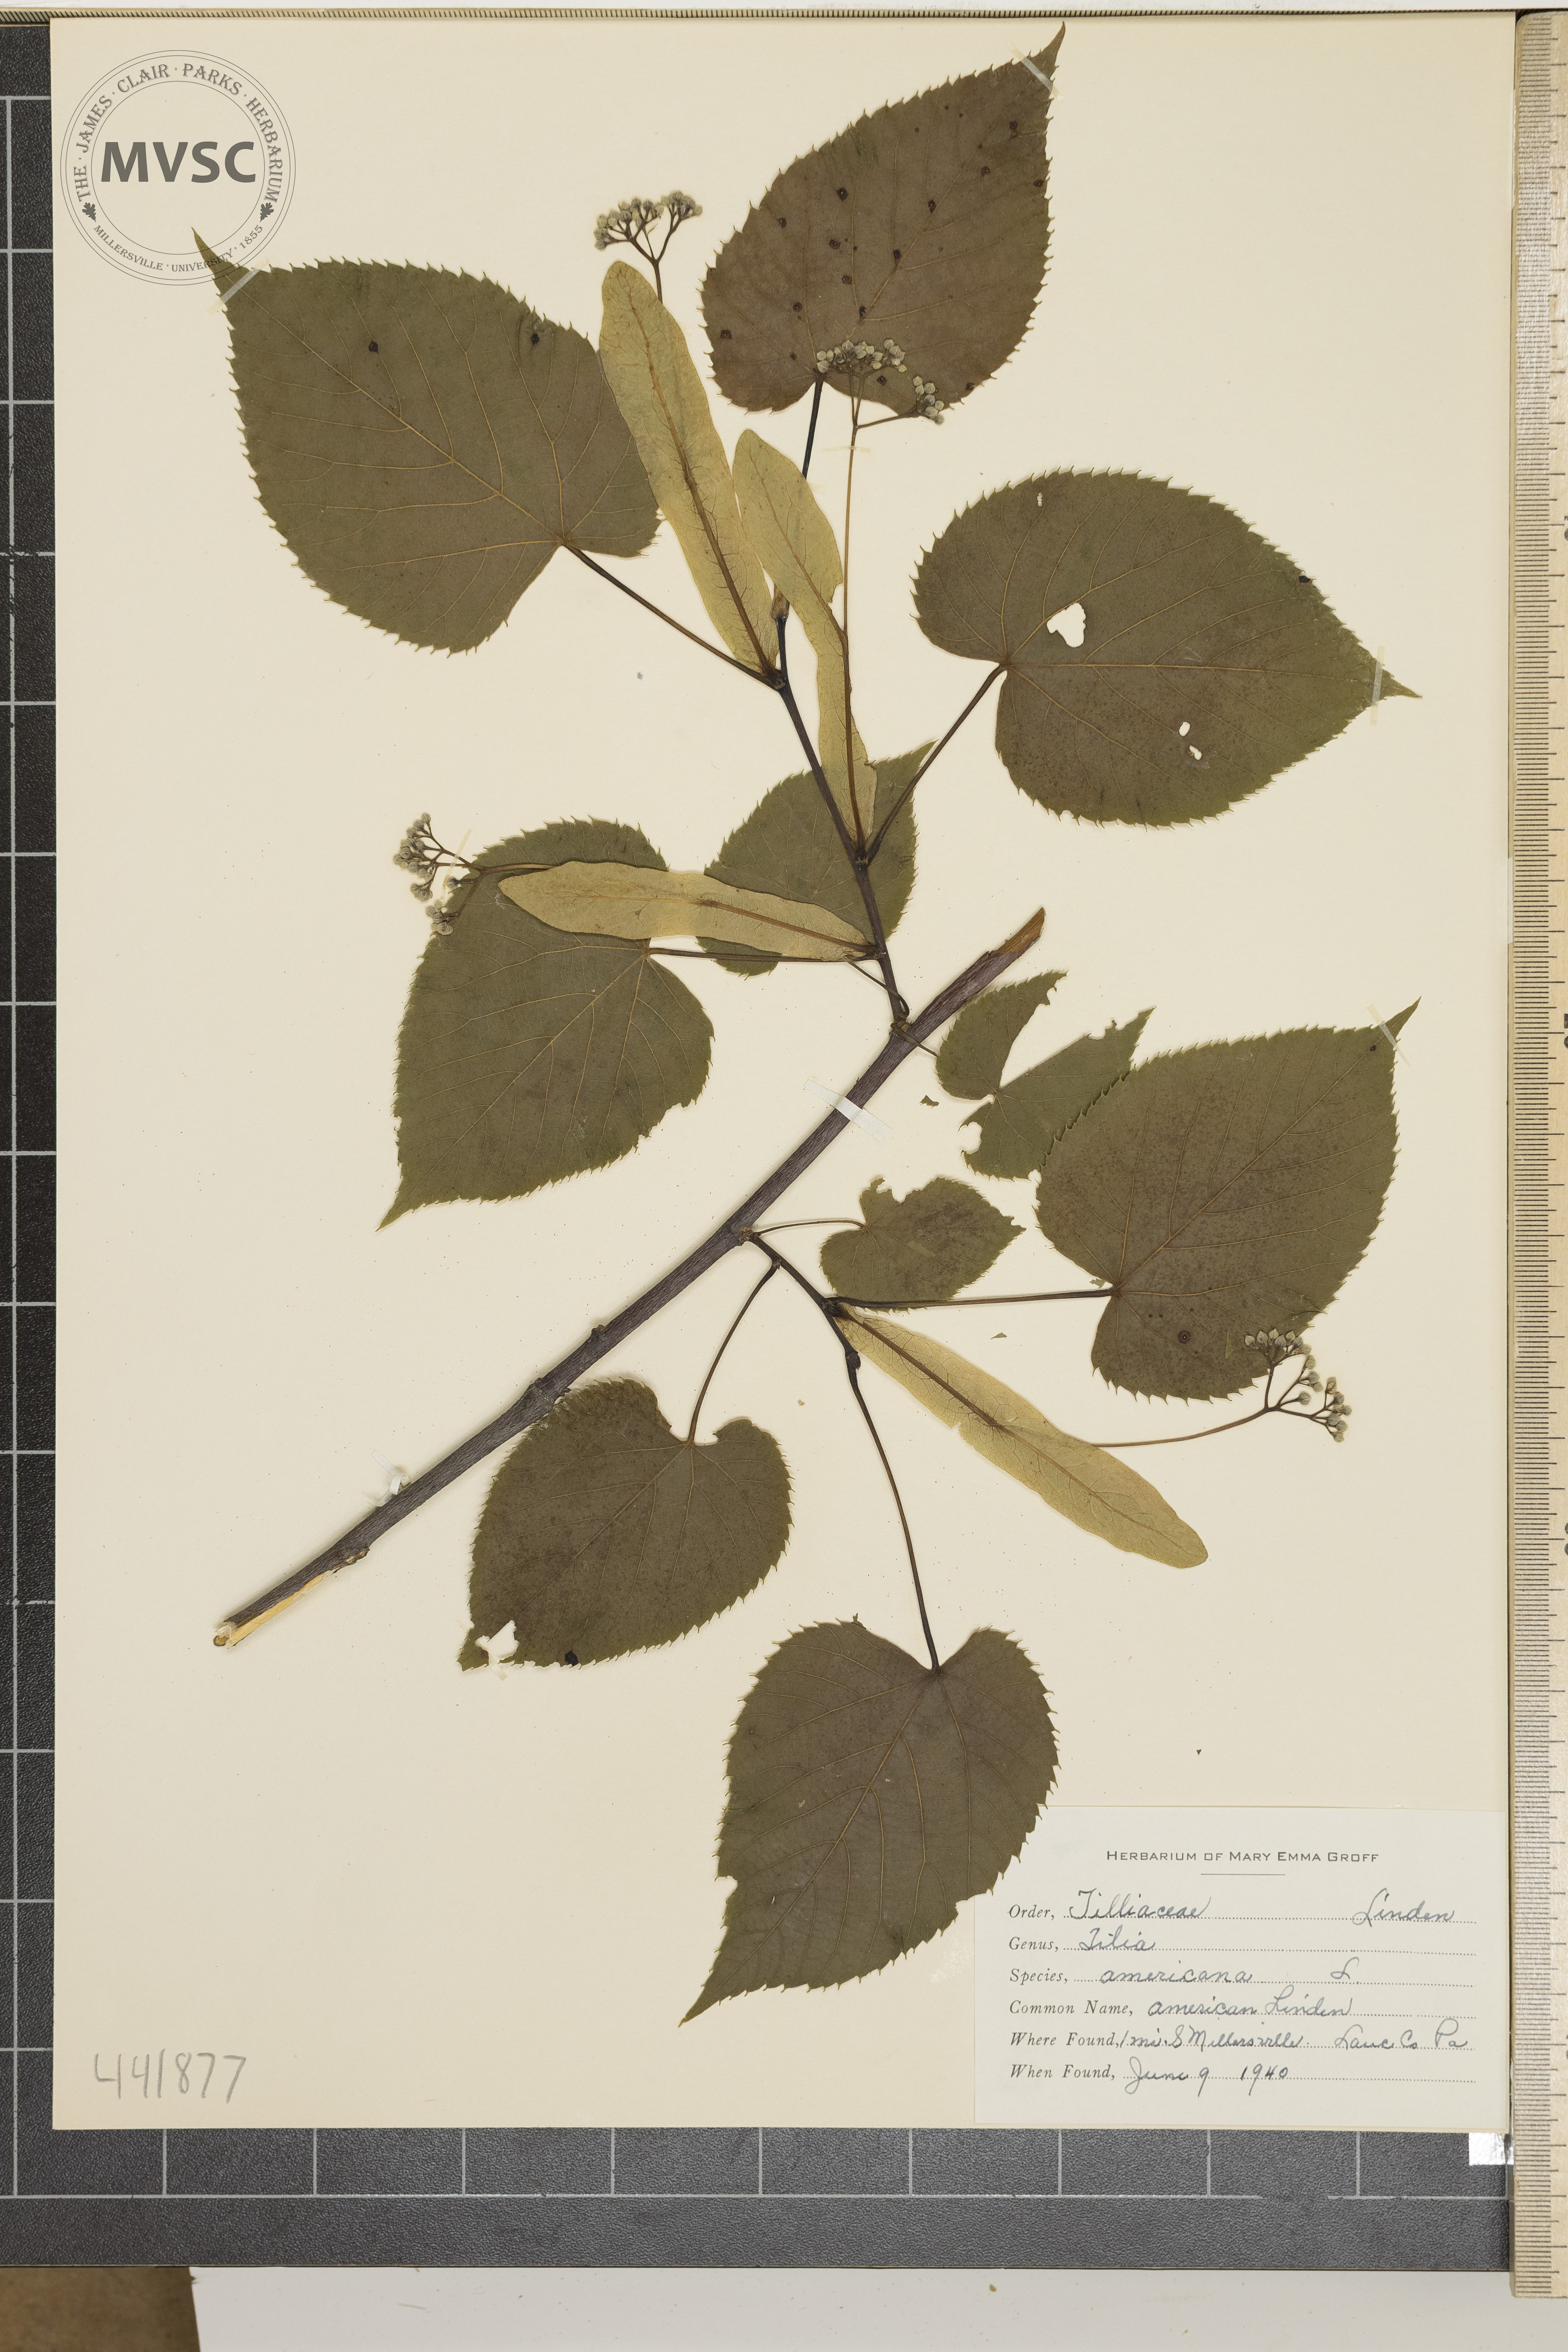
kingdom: Plantae
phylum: Tracheophyta
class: Magnoliopsida
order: Malvales
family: Malvaceae
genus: Tilia
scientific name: Tilia americana
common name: American Linden
